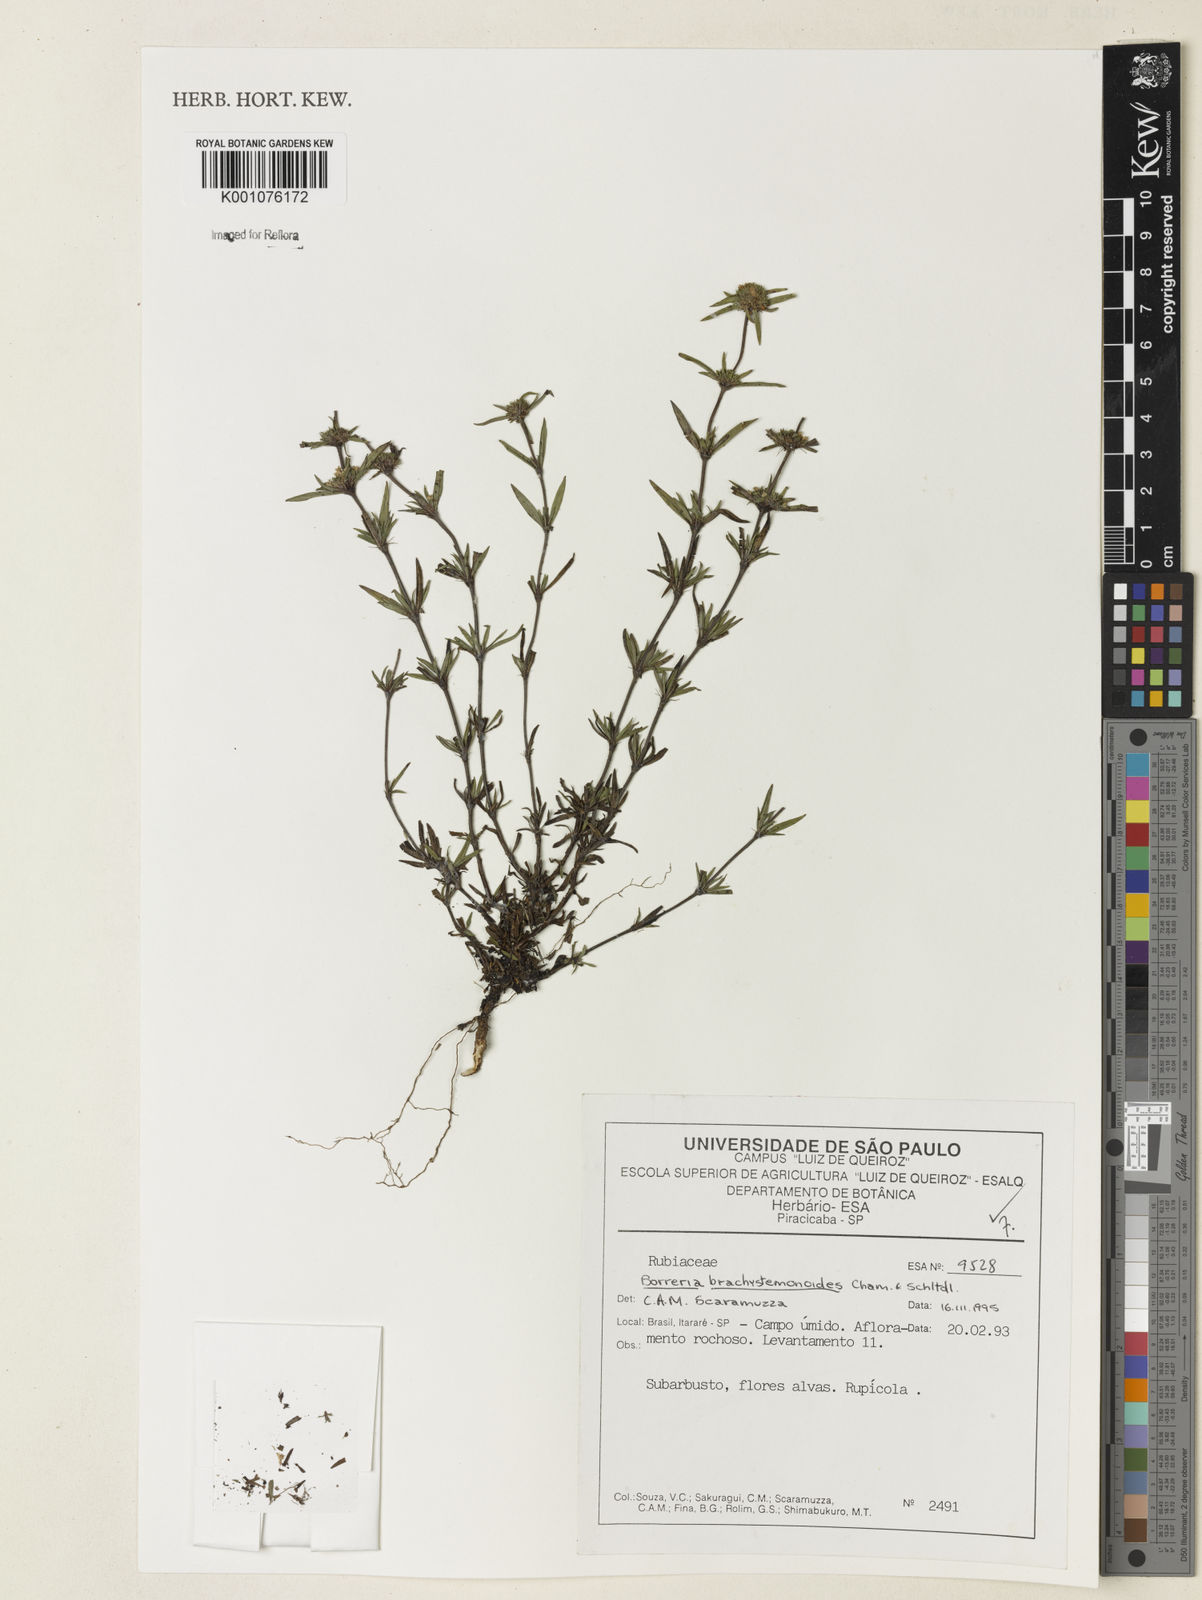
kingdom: Plantae
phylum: Tracheophyta
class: Magnoliopsida
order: Gentianales
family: Rubiaceae
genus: Spermacoce
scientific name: Spermacoce brachystemonoides
